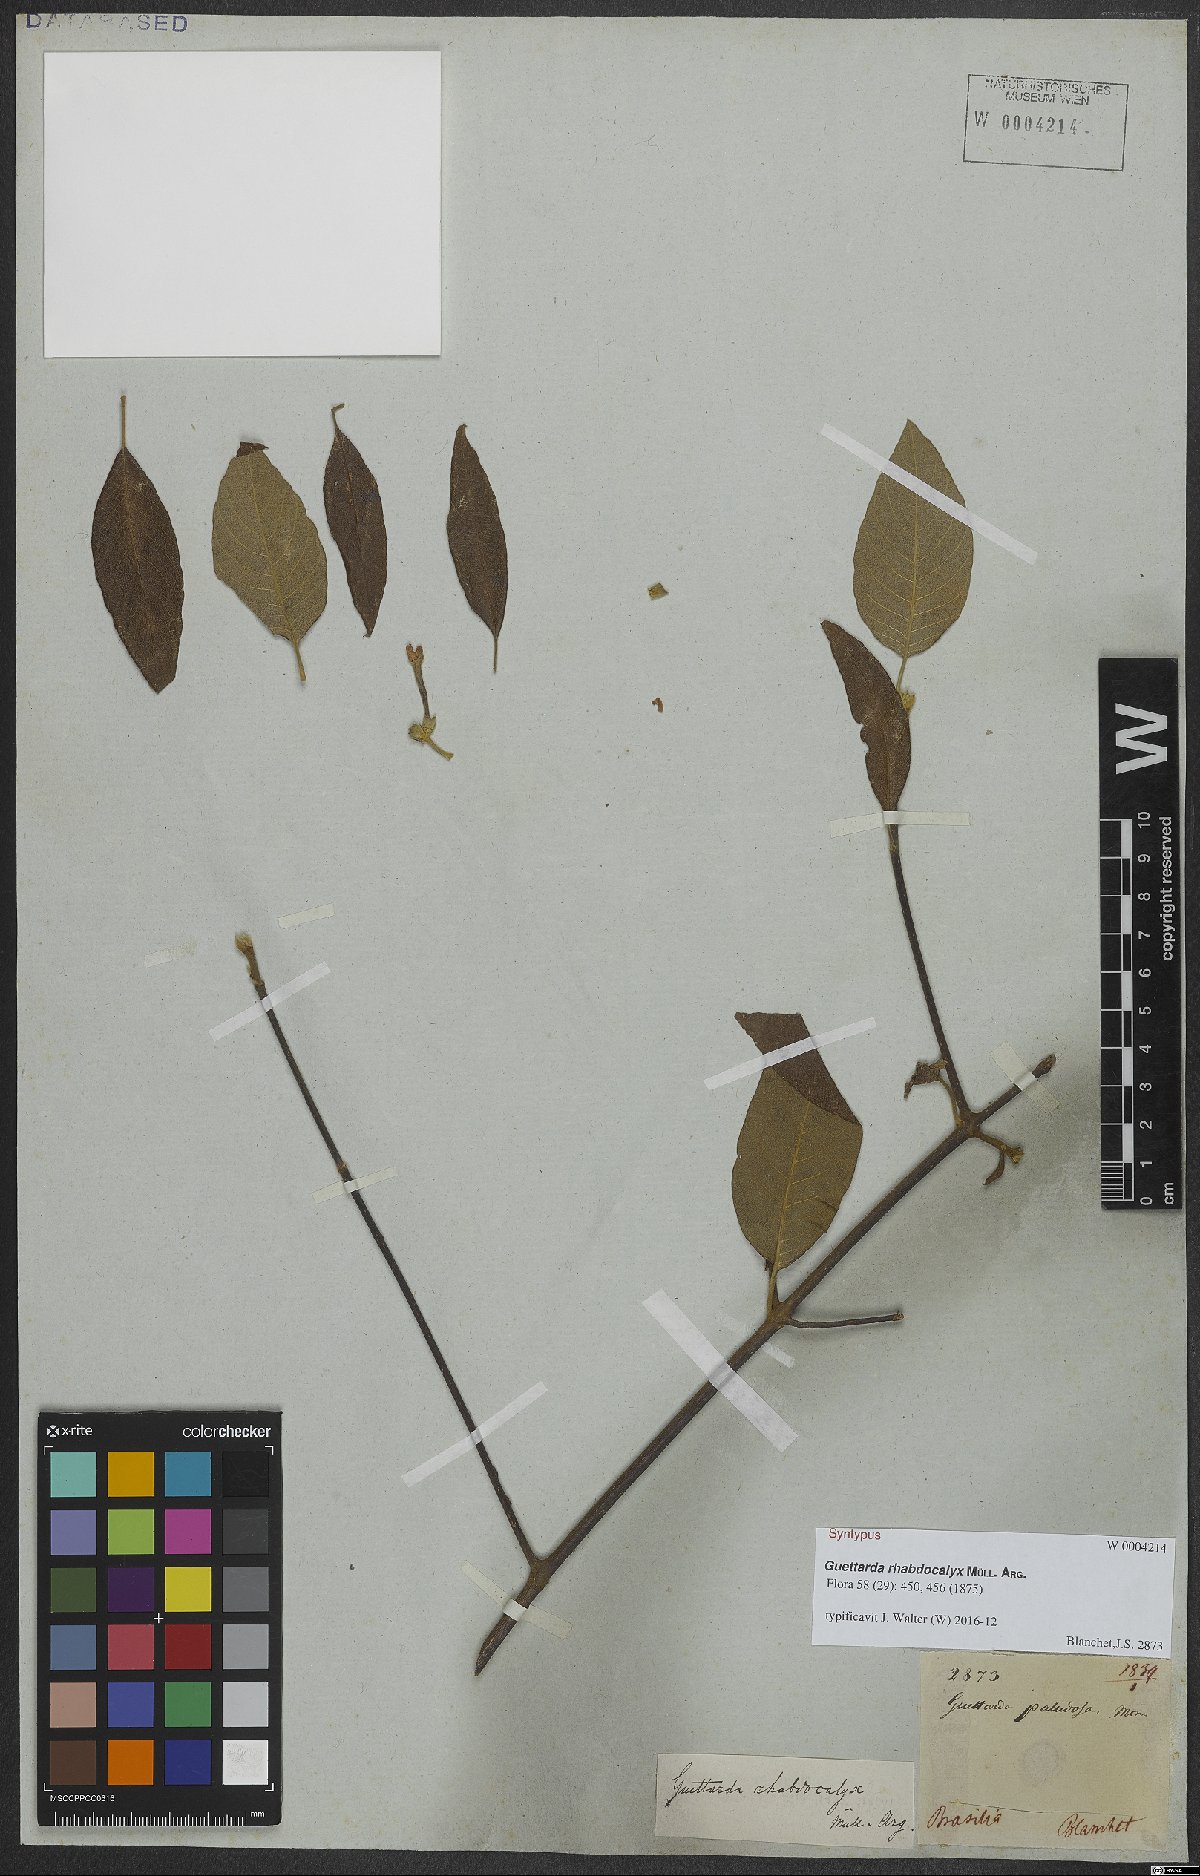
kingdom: Plantae
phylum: Tracheophyta
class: Magnoliopsida
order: Gentianales
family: Rubiaceae
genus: Guettarda
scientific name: Guettarda rhabdocalyx
